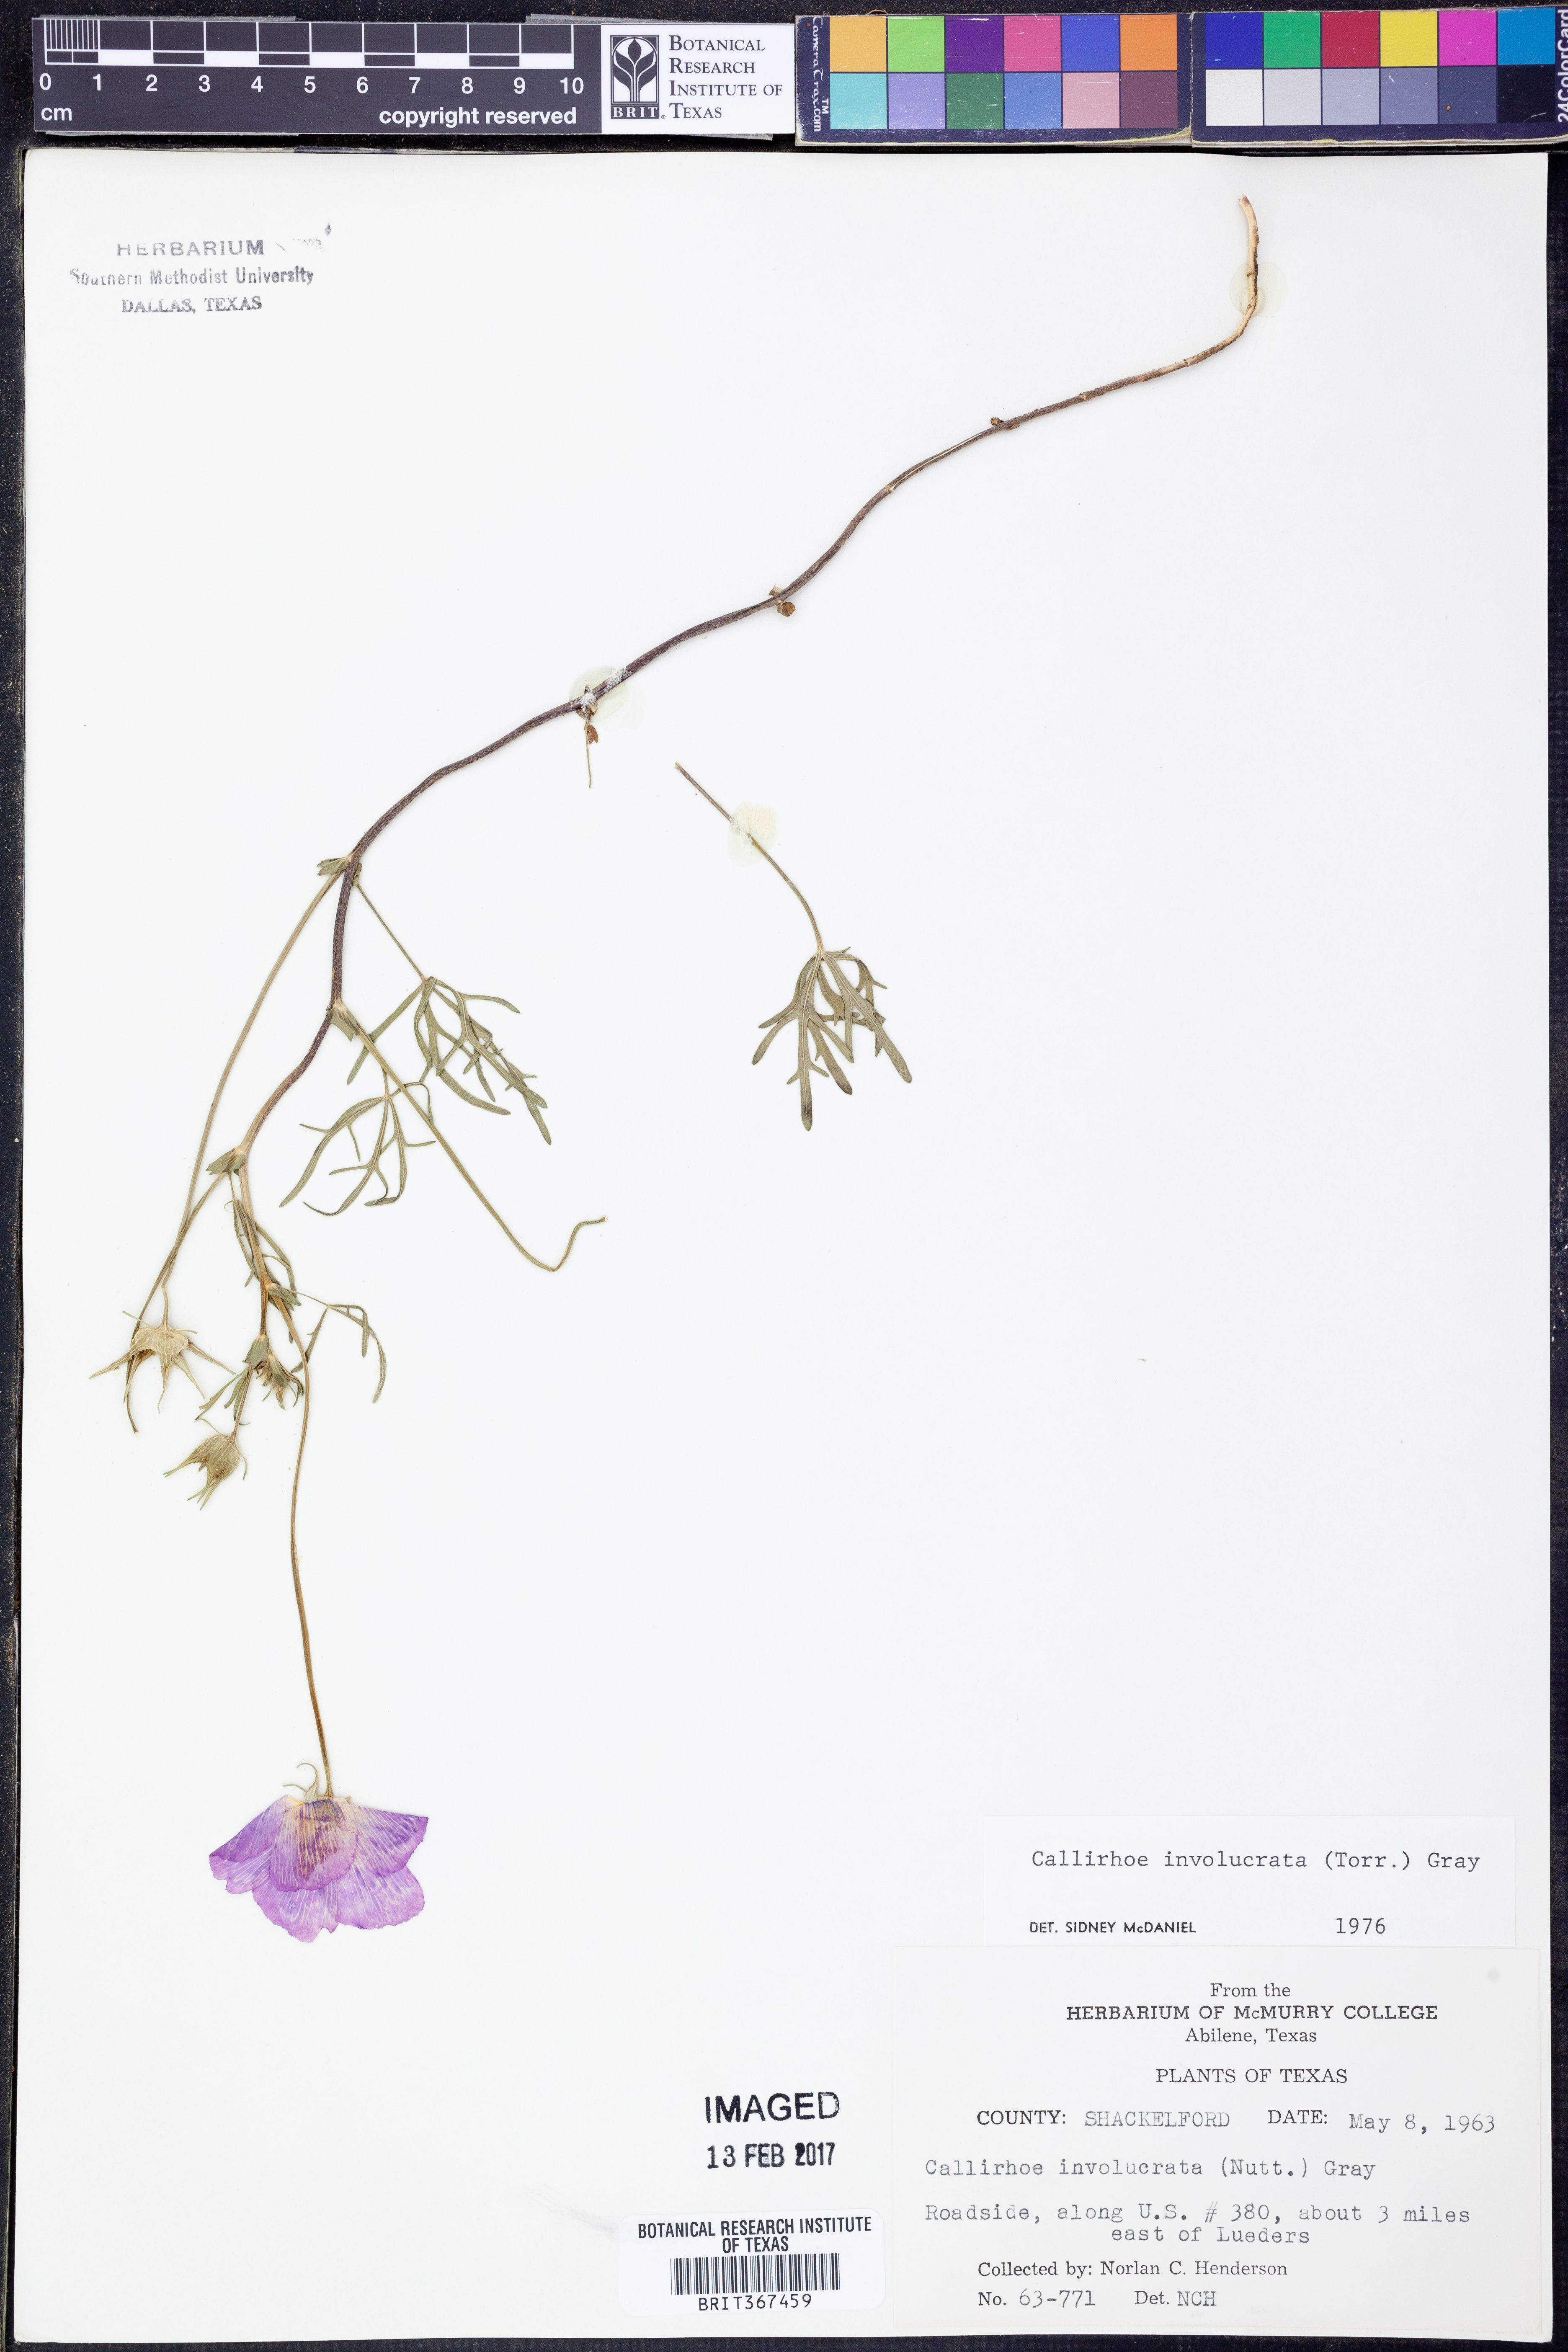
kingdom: Plantae
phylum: Tracheophyta
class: Magnoliopsida
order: Malvales
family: Malvaceae
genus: Callirhoe
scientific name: Callirhoe involucrata
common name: Purple poppy-mallow
